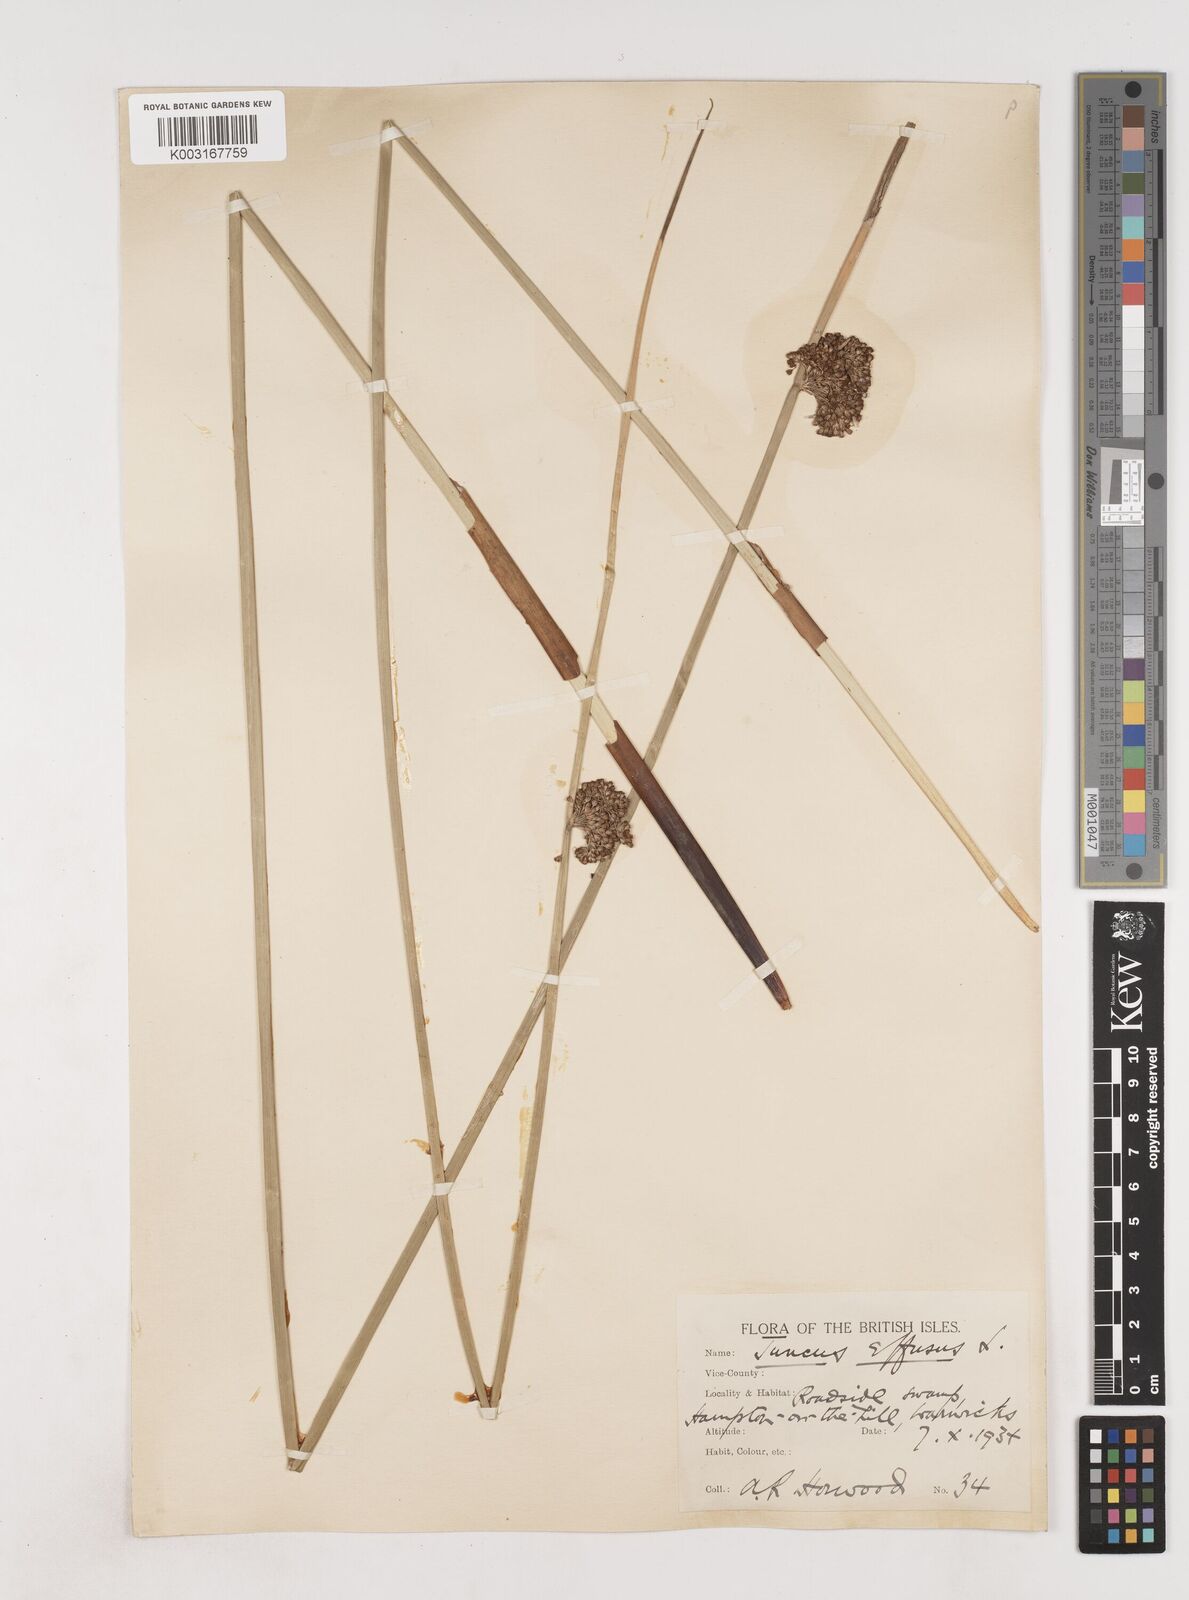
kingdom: Plantae
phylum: Tracheophyta
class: Liliopsida
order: Poales
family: Juncaceae
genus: Juncus
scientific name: Juncus effusus
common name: Soft rush
